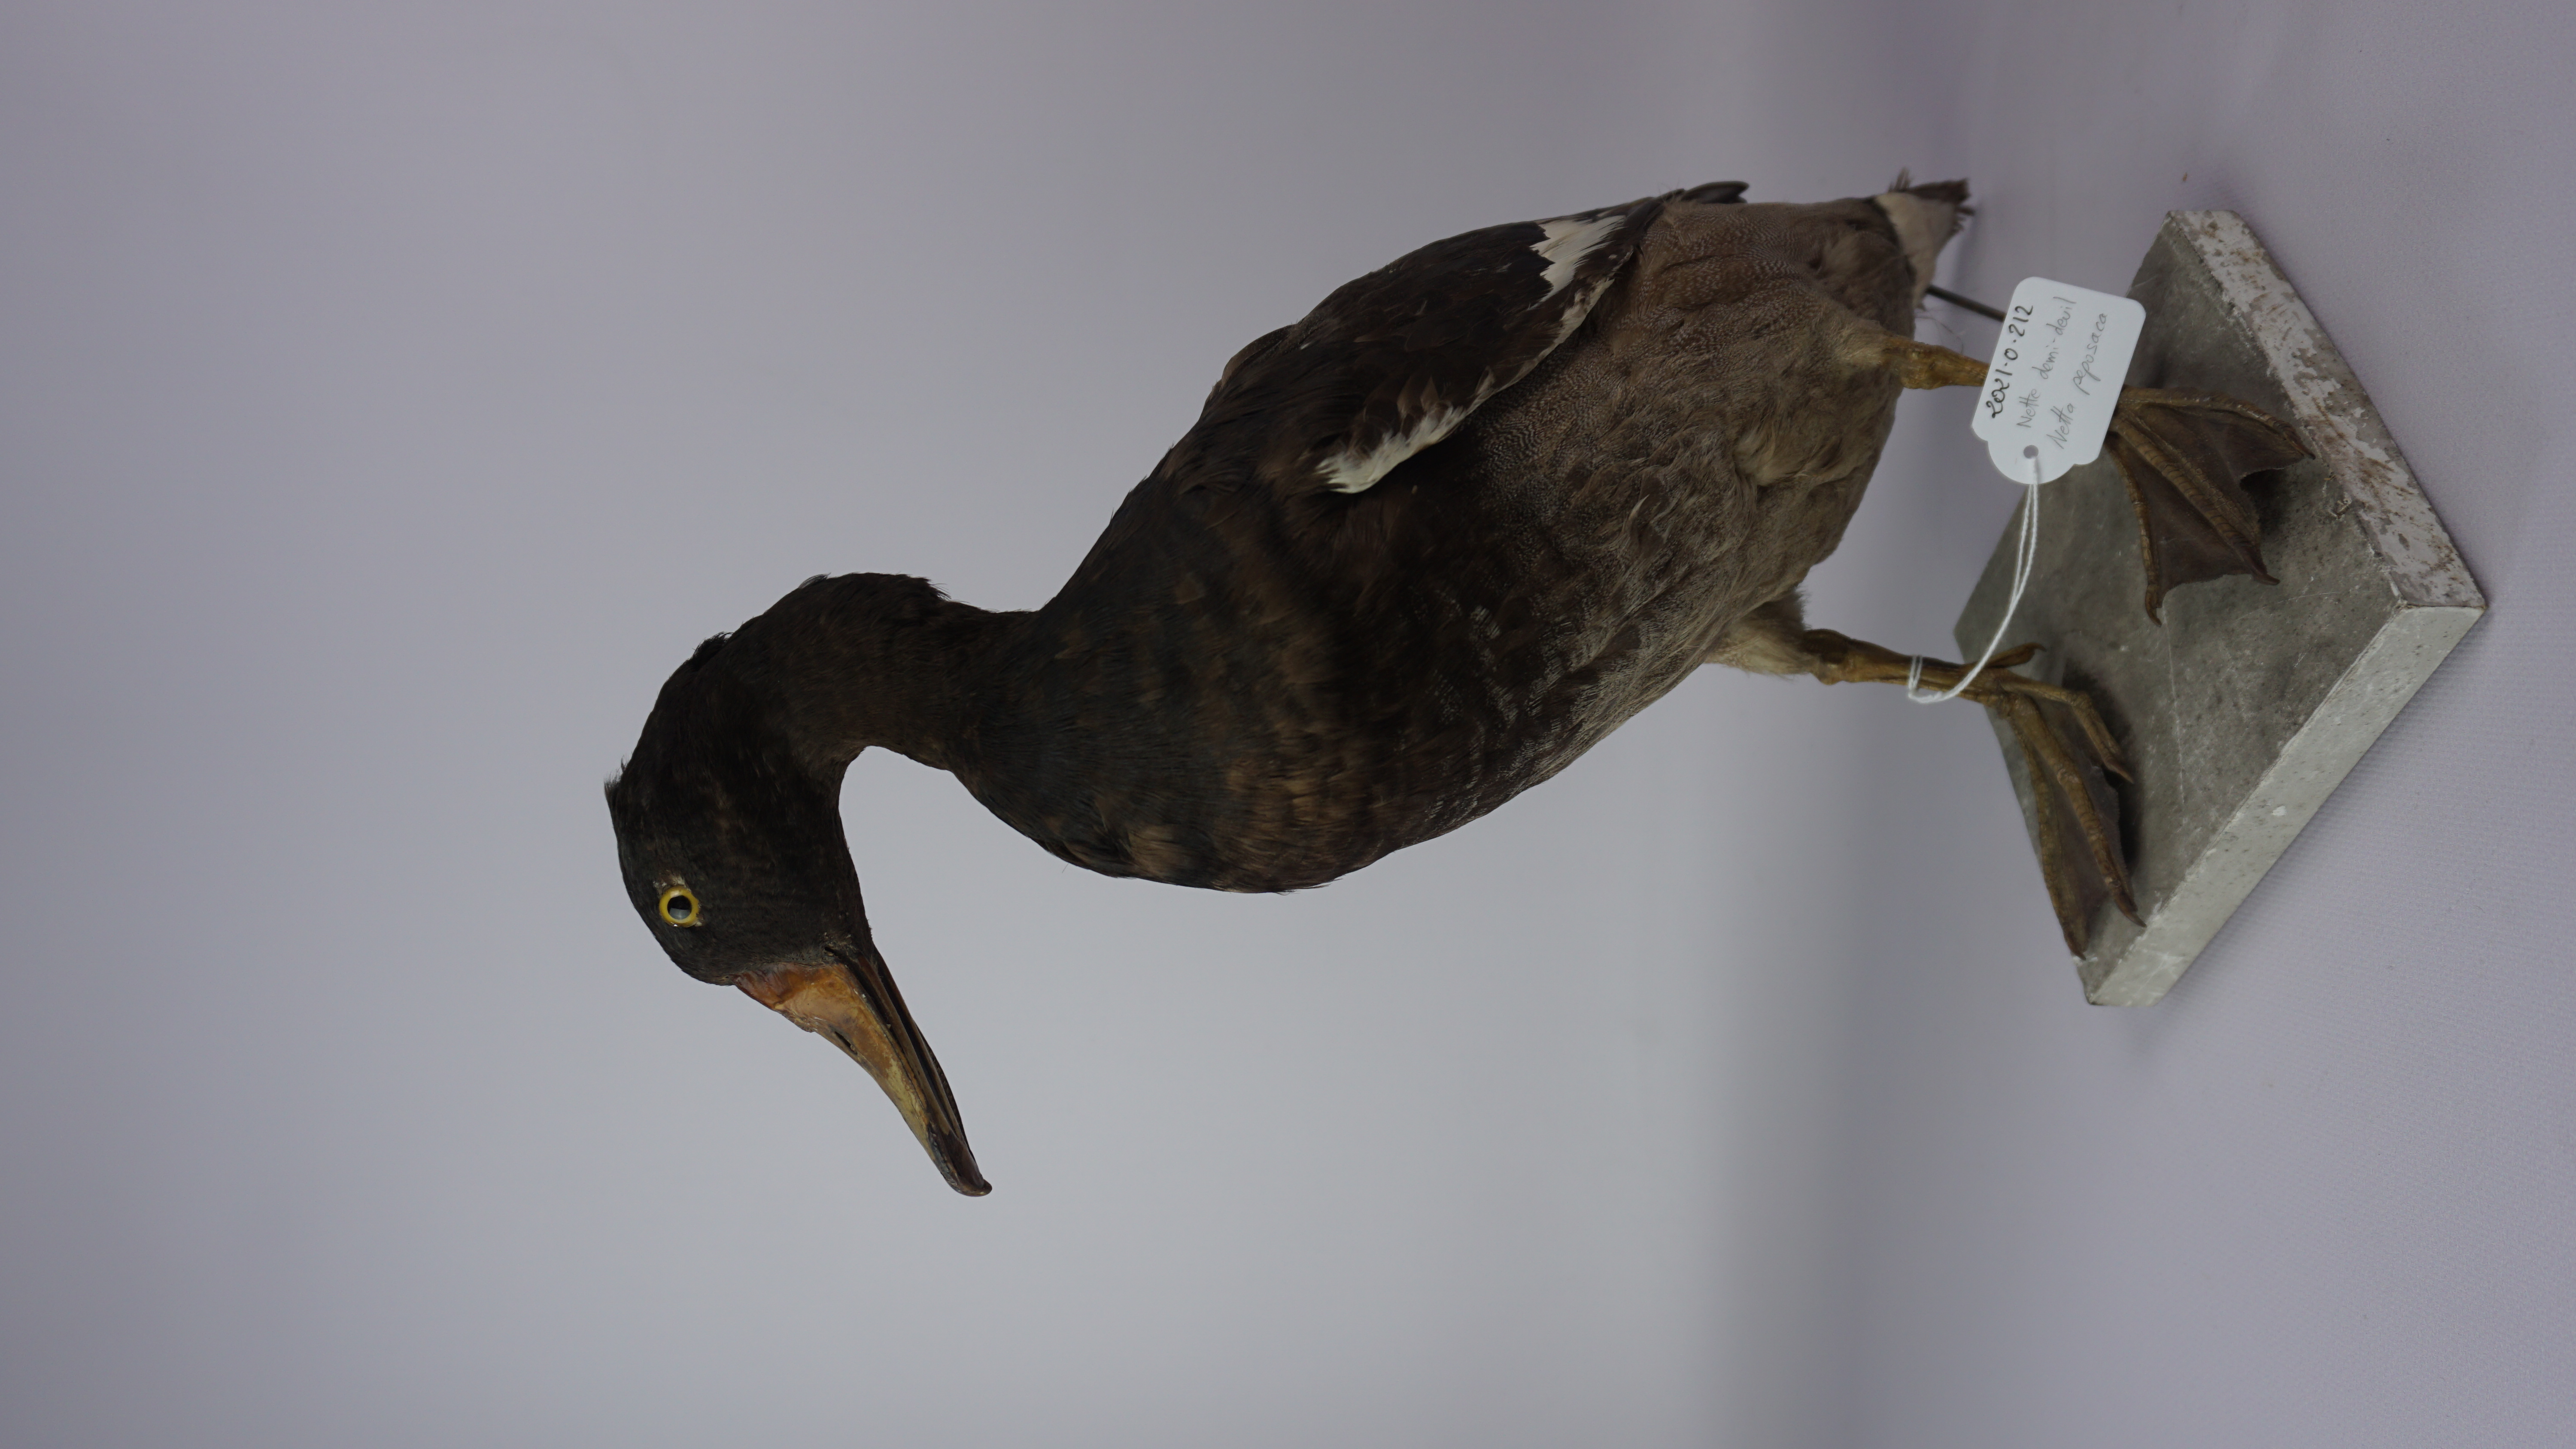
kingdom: Animalia
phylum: Chordata
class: Aves
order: Anseriformes
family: Anatidae
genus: Netta
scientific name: Netta peposaca
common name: Rosy-billed pochard
